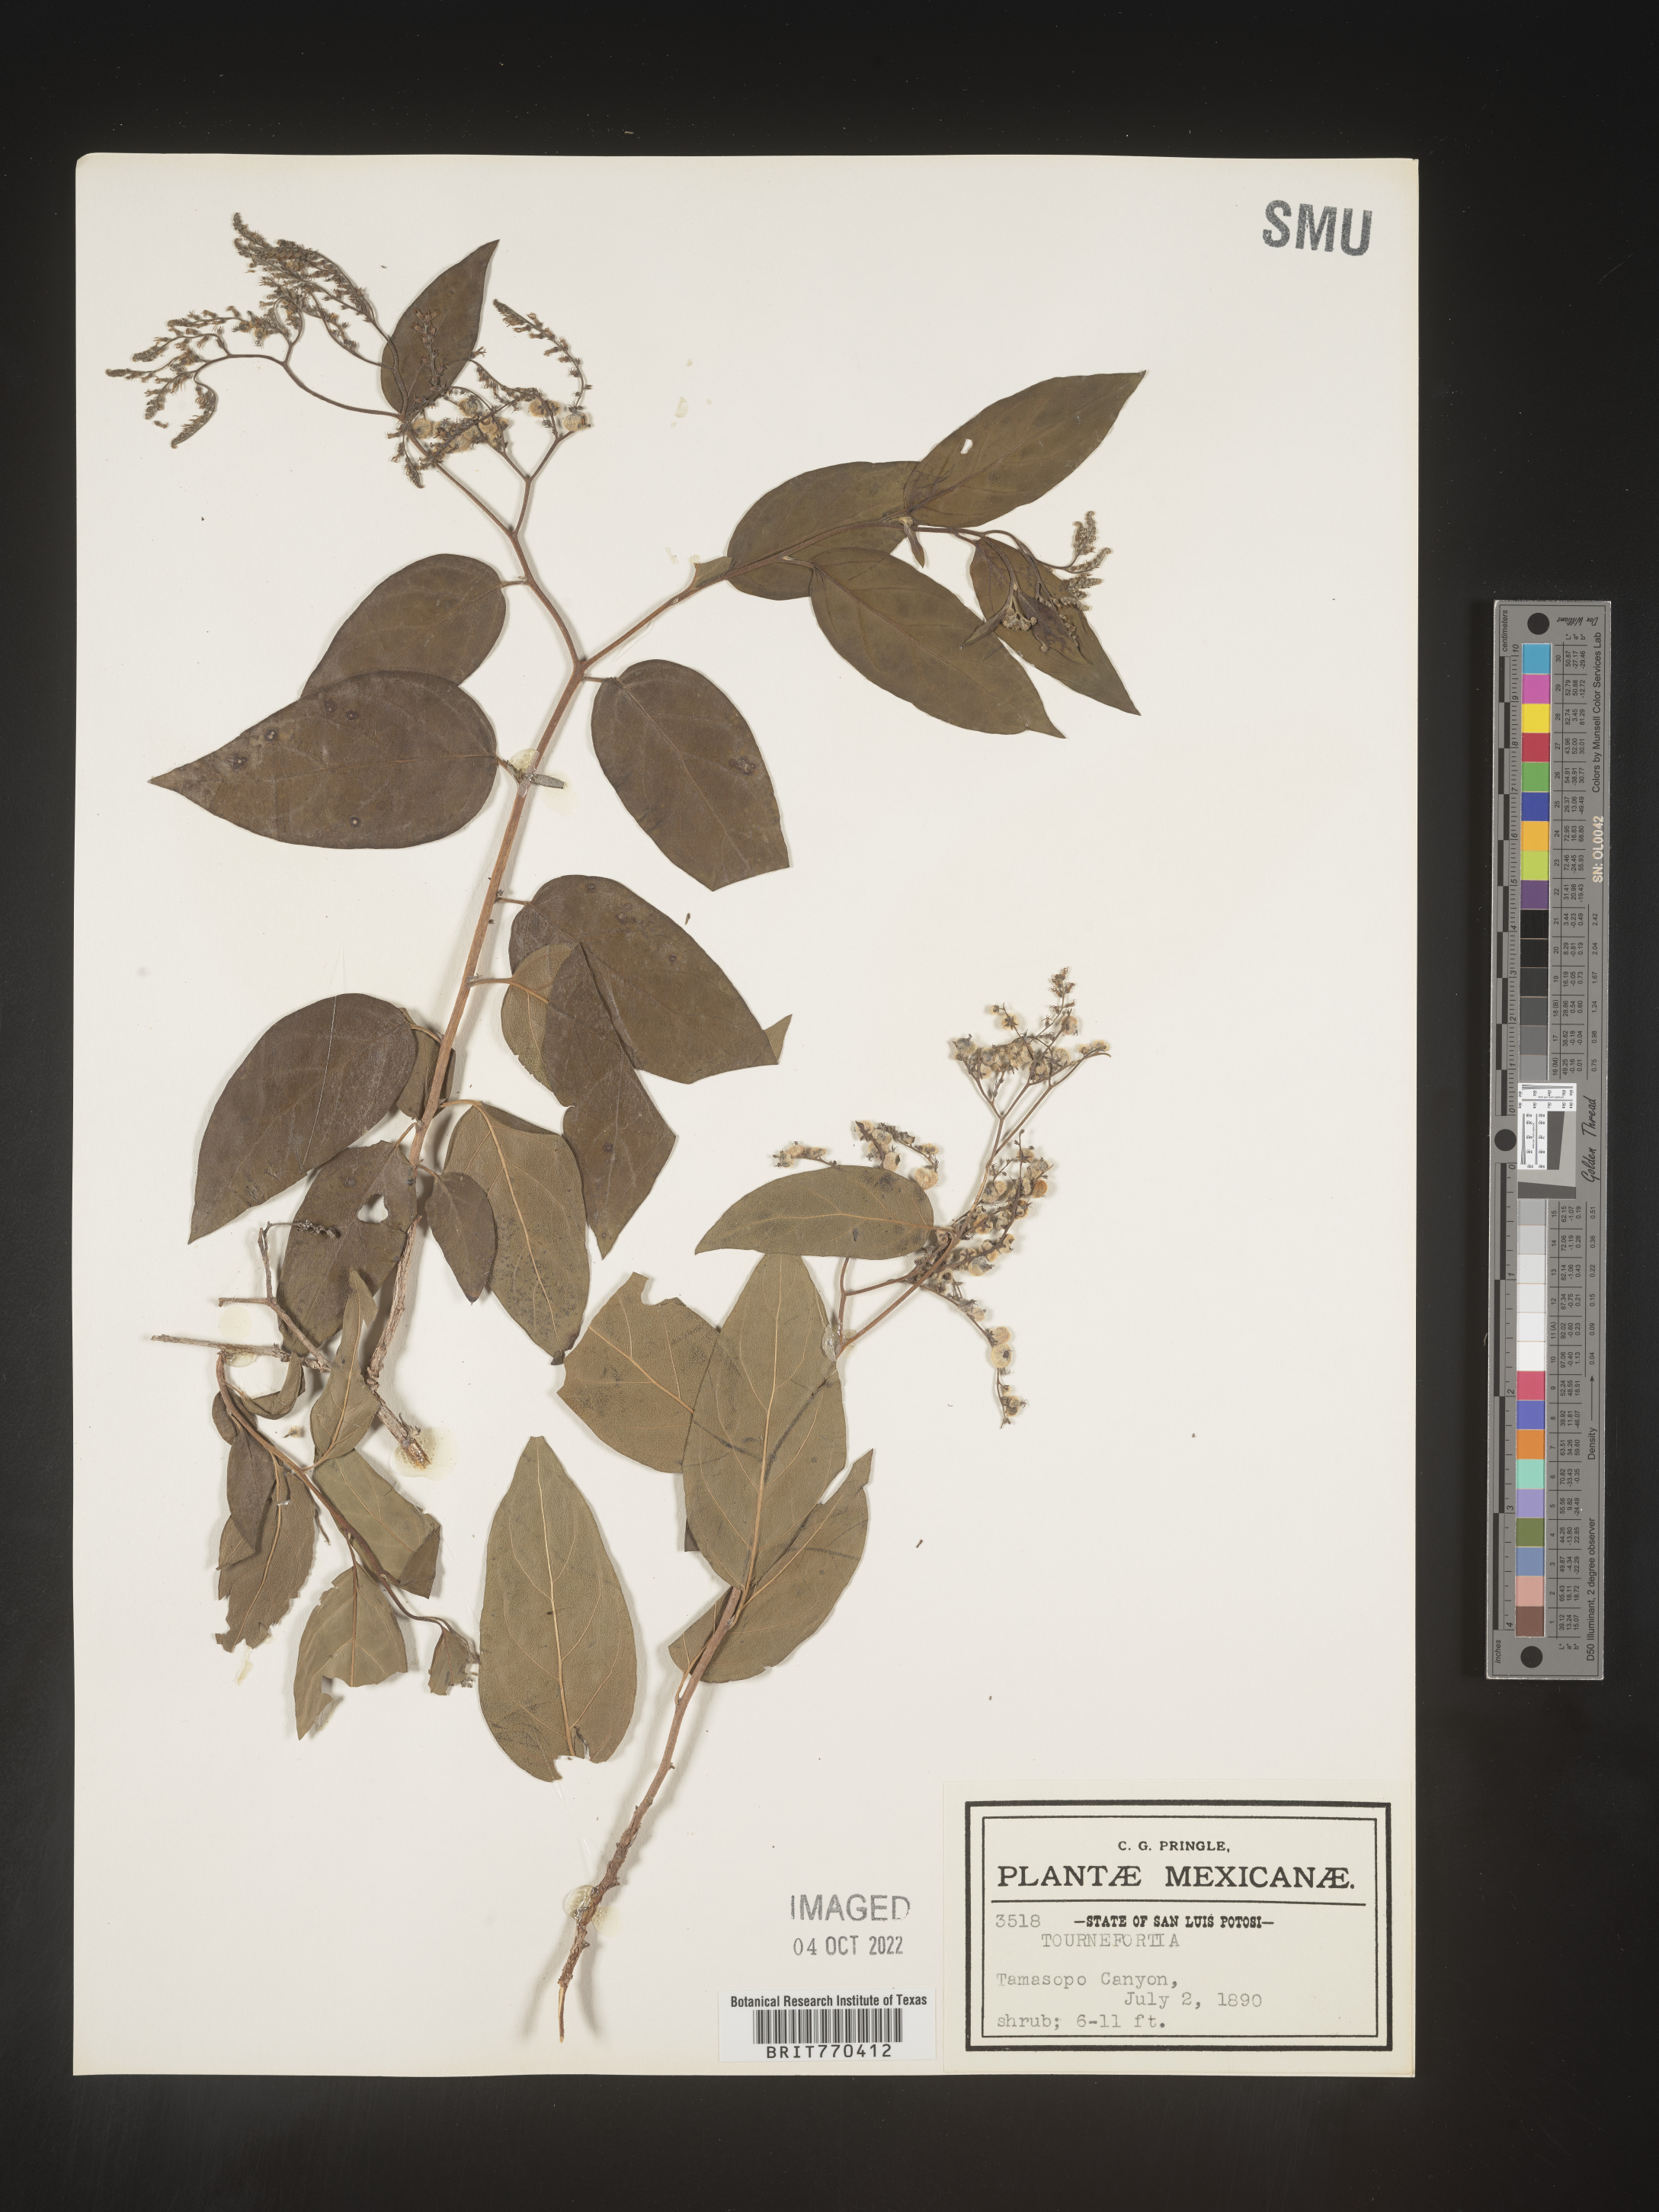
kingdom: Plantae
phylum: Tracheophyta
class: Magnoliopsida
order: Boraginales
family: Heliotropiaceae
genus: Tournefortia
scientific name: Tournefortia
